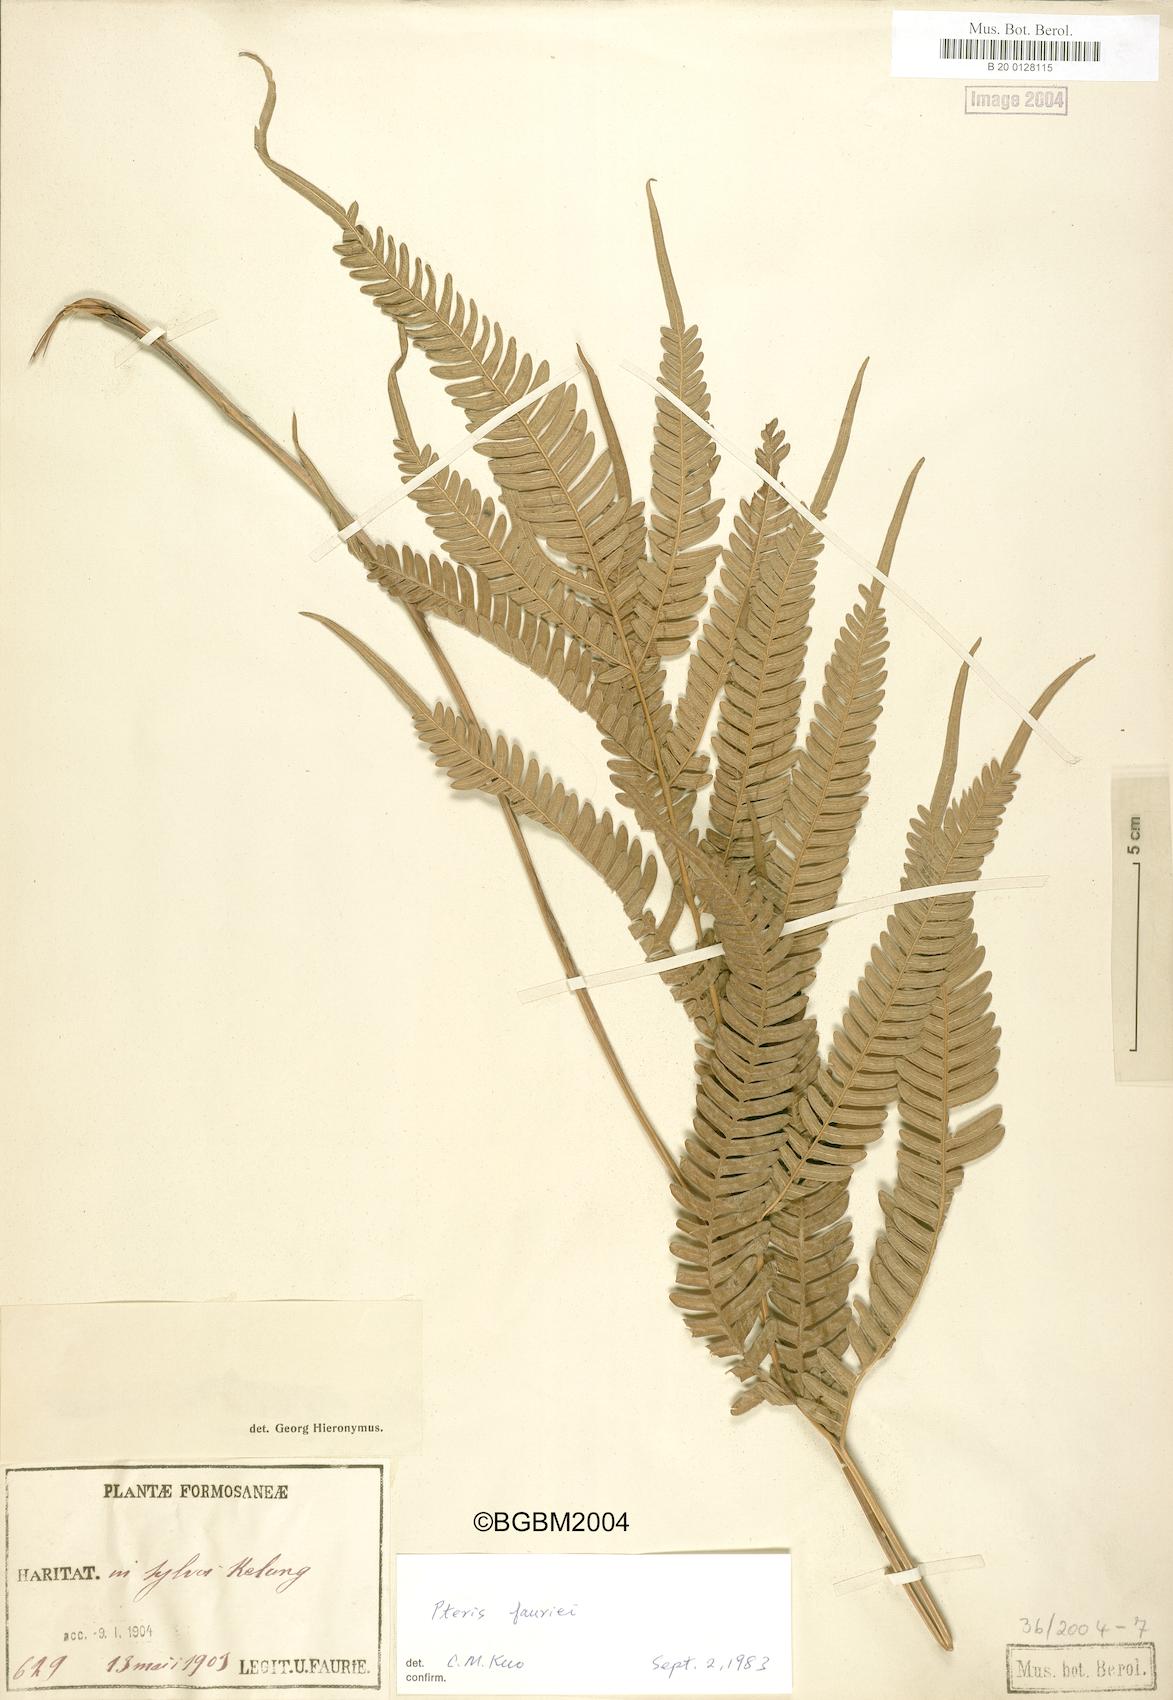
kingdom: Plantae
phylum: Tracheophyta
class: Polypodiopsida
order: Polypodiales
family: Pteridaceae
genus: Pteris
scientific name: Pteris fauriei
